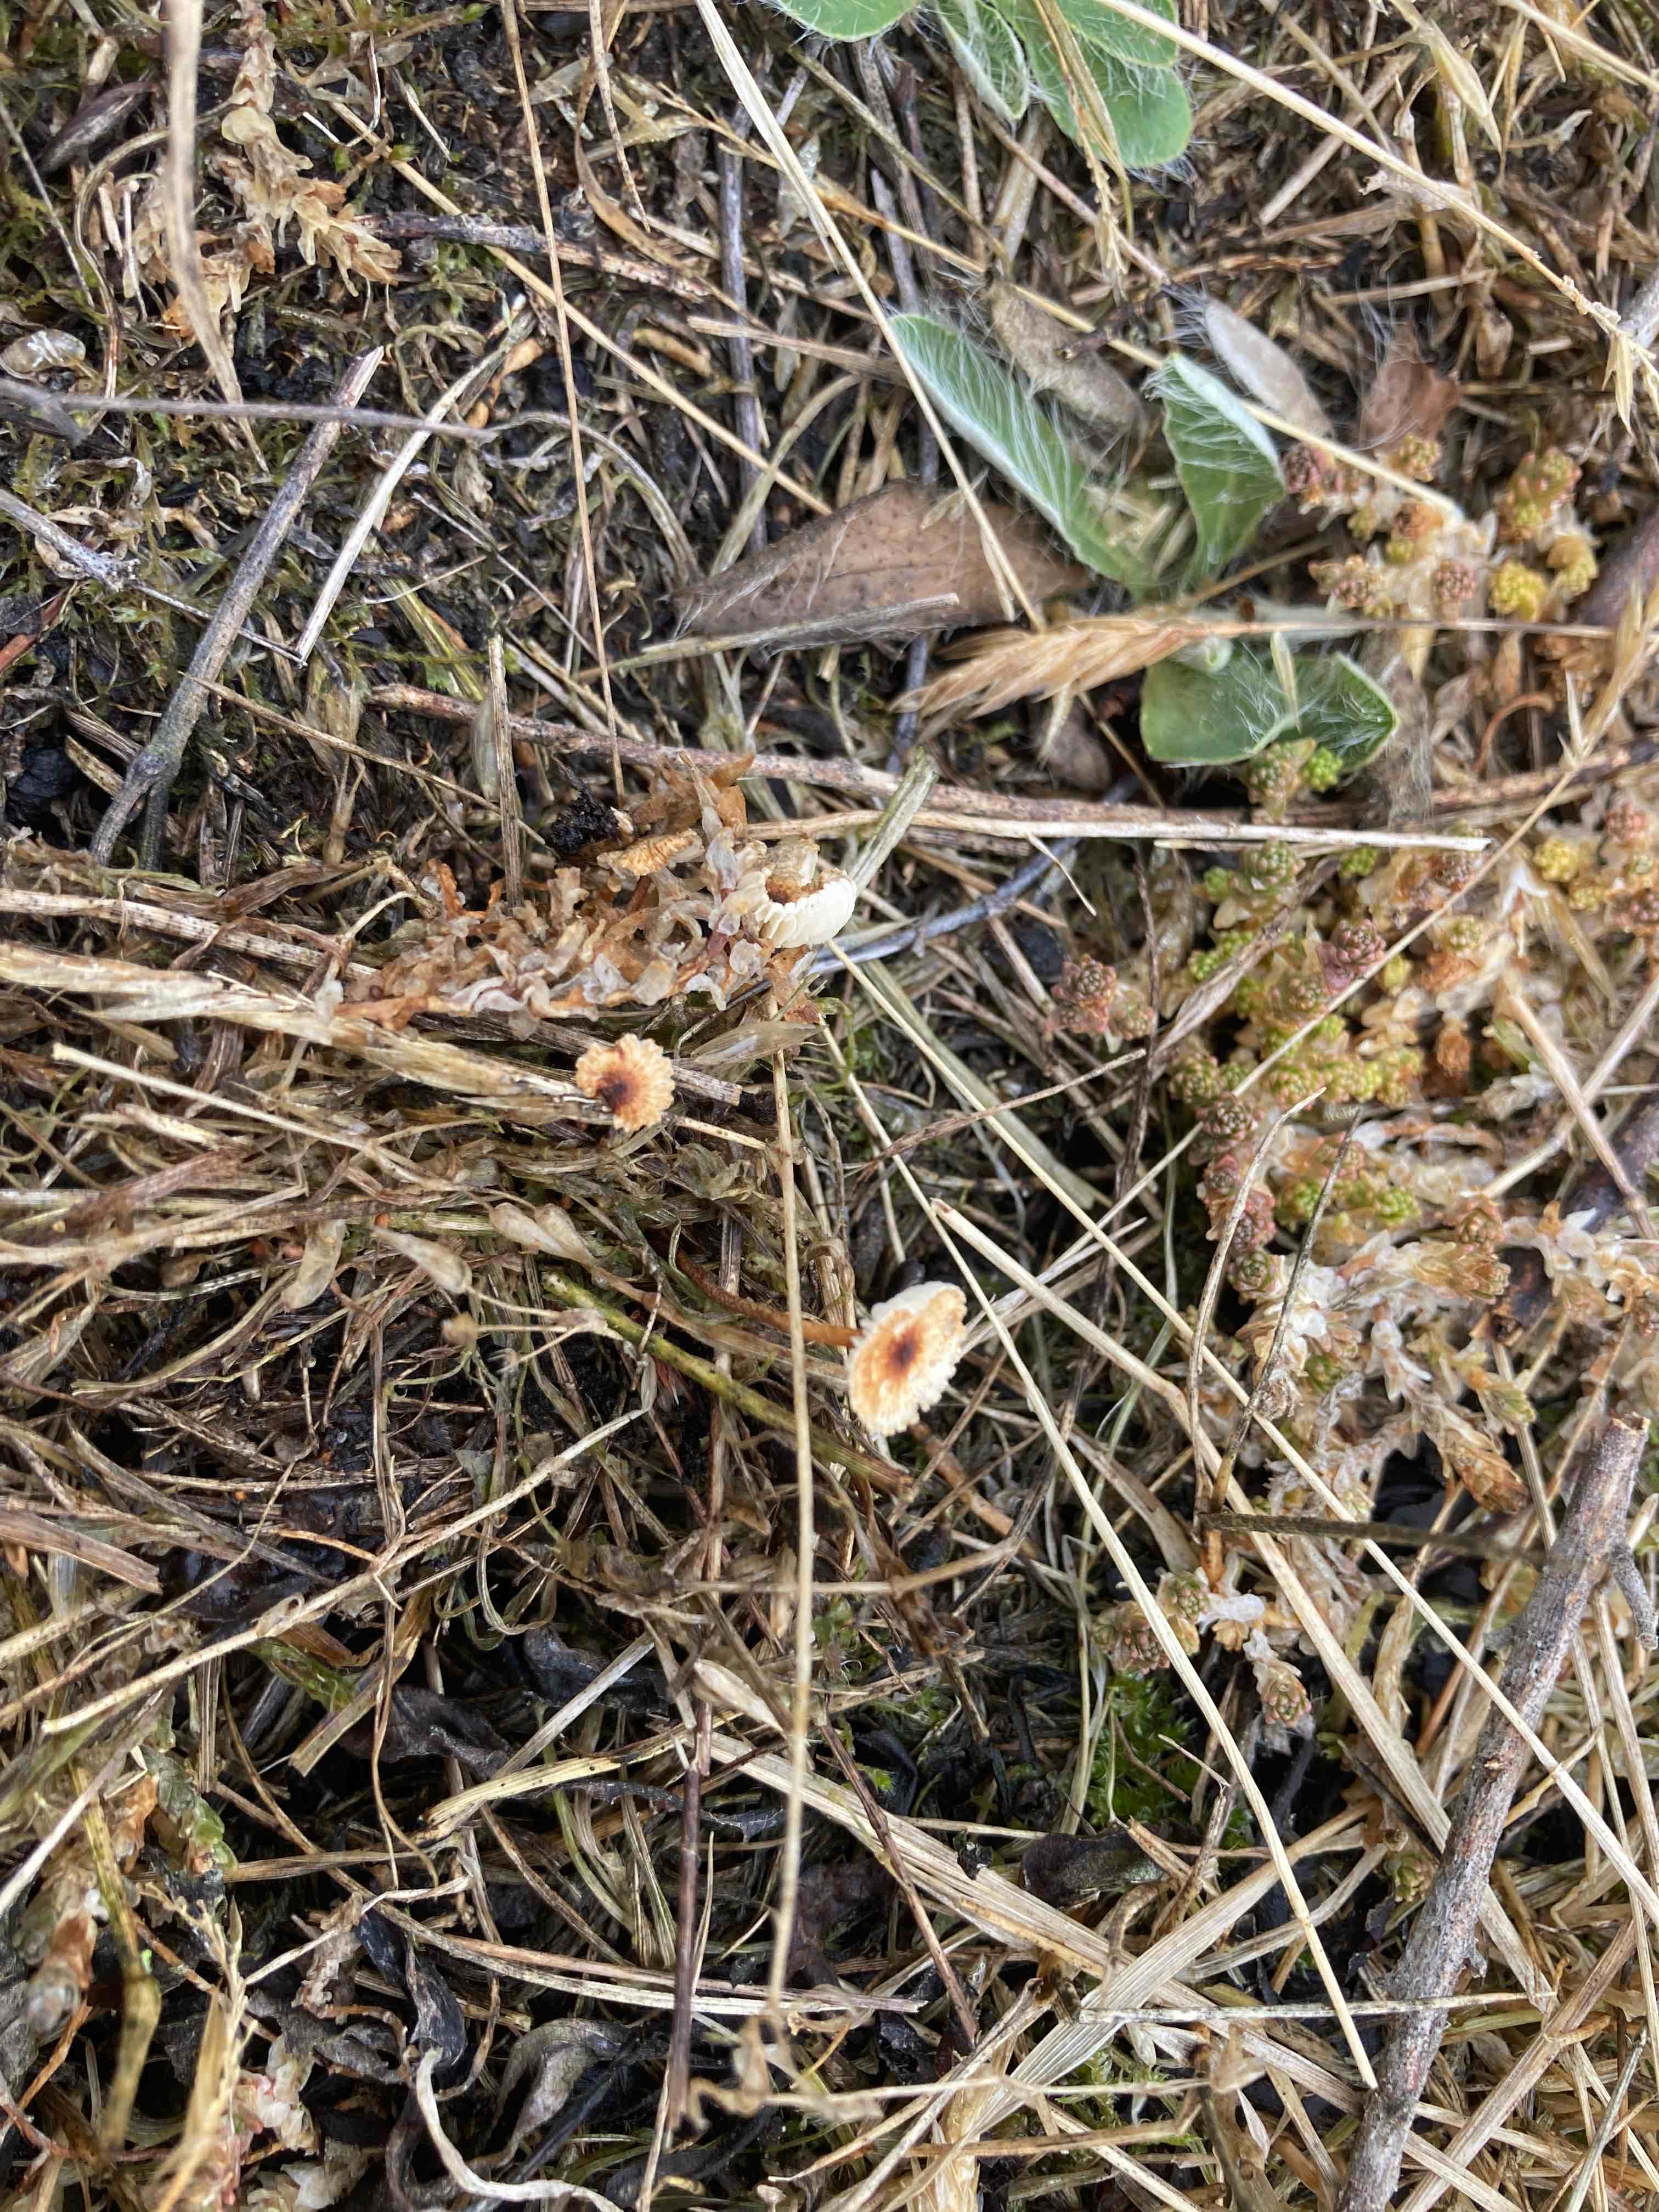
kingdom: Fungi
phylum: Basidiomycota
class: Agaricomycetes
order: Agaricales
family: Marasmiaceae
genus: Crinipellis
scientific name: Crinipellis scabella
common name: børstefod
